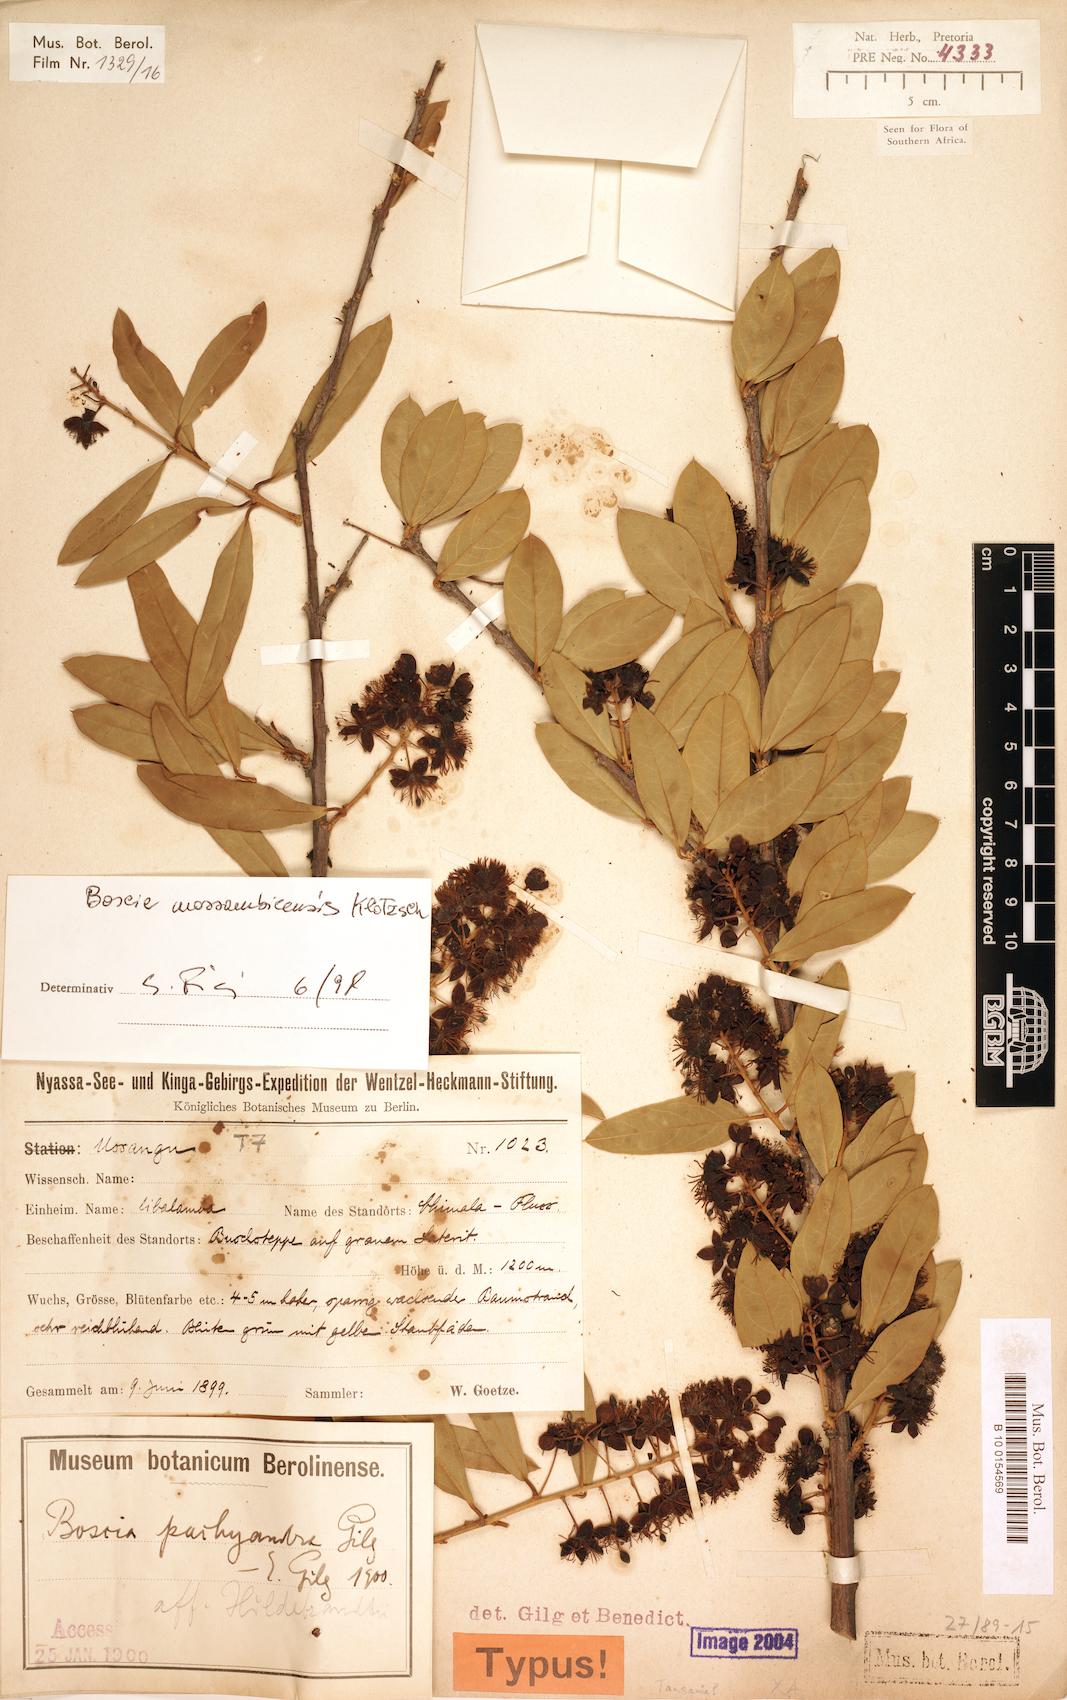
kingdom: Plantae
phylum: Tracheophyta
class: Magnoliopsida
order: Brassicales
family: Capparaceae
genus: Boscia
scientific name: Boscia mossambicensis
